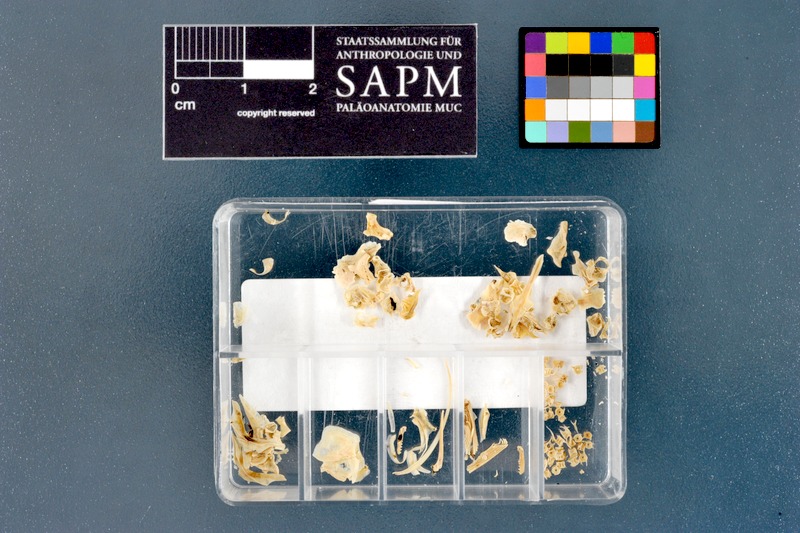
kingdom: Animalia
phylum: Chordata
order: Cypriniformes
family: Cyprinidae
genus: Schizothorax
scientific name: Schizothorax richardsonii
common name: Alawan snowtrout
